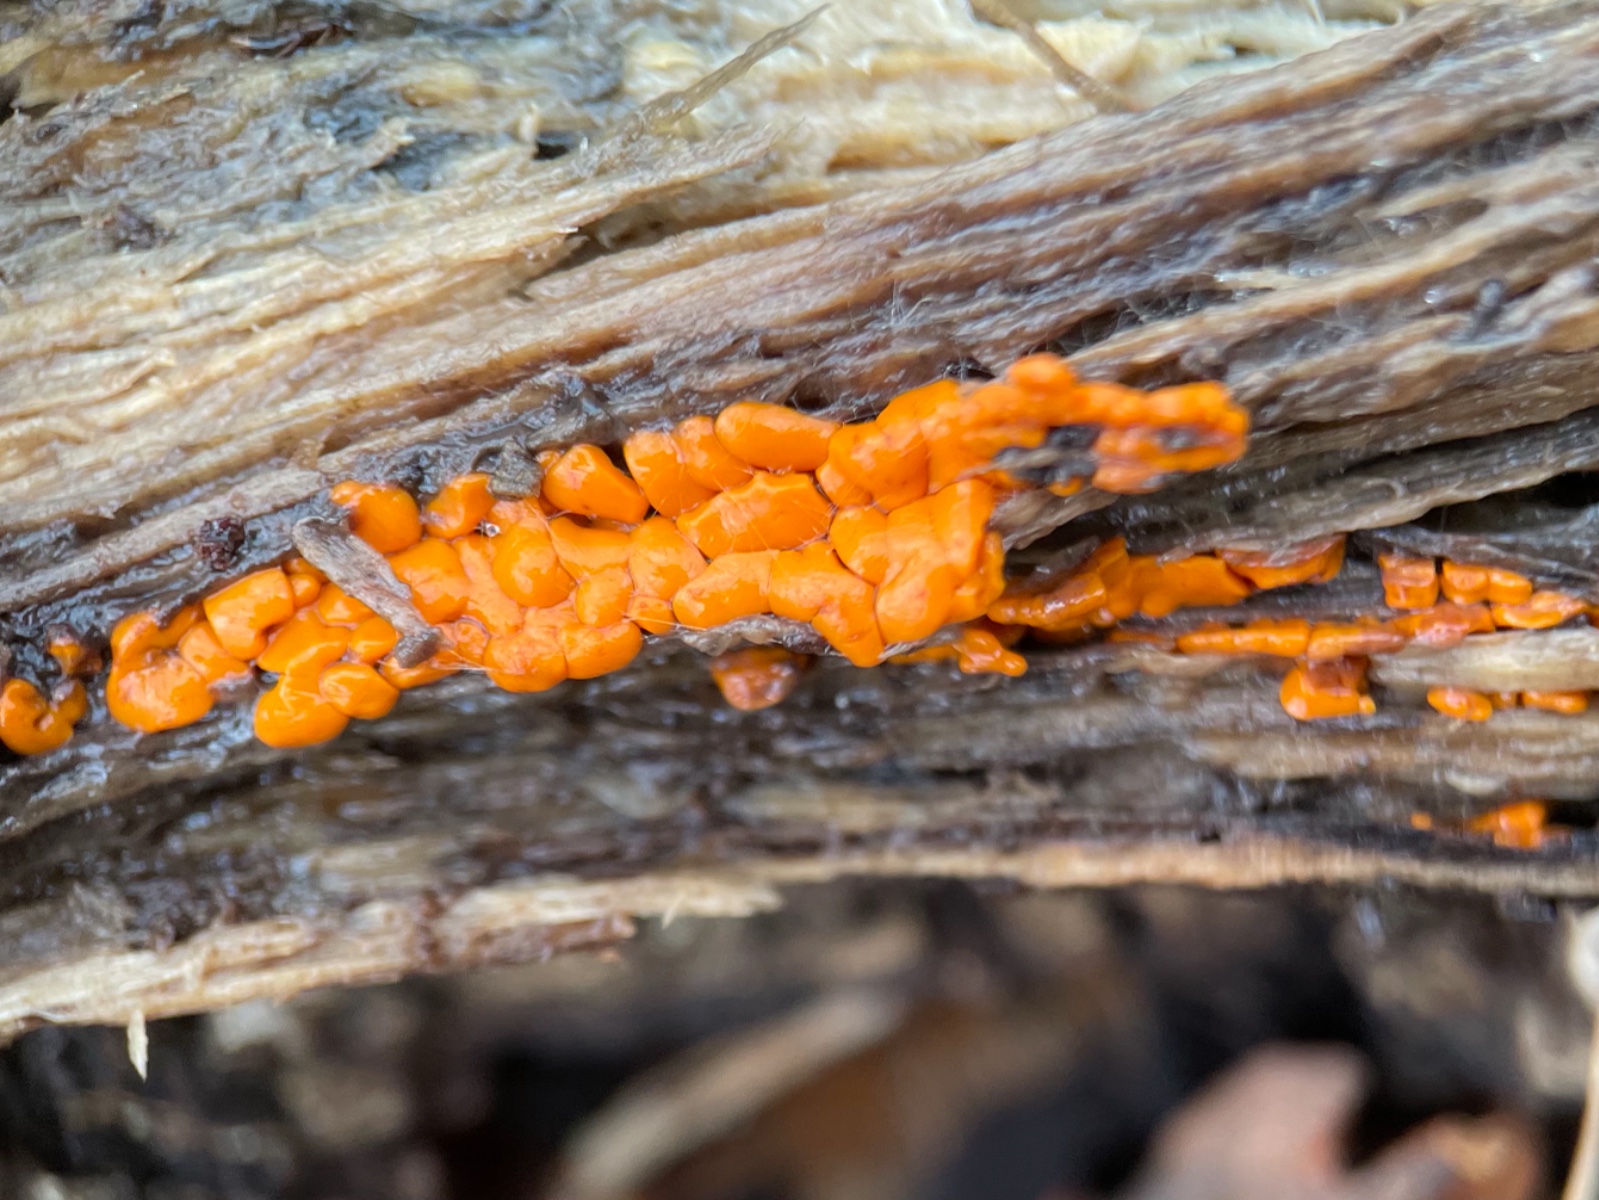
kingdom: Fungi
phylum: Basidiomycota
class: Dacrymycetes
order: Dacrymycetales
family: Dacrymycetaceae
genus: Dacrymyces
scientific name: Dacrymyces stillatus
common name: almindelig tåresvamp
